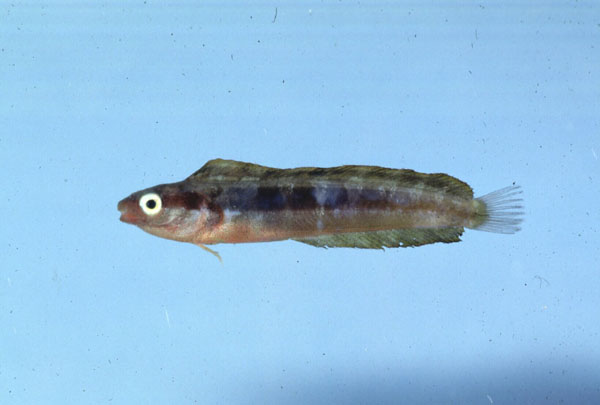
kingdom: Animalia
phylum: Chordata
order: Perciformes
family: Blenniidae
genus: Aspidontus
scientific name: Aspidontus dussumieri
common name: Lance blenny
